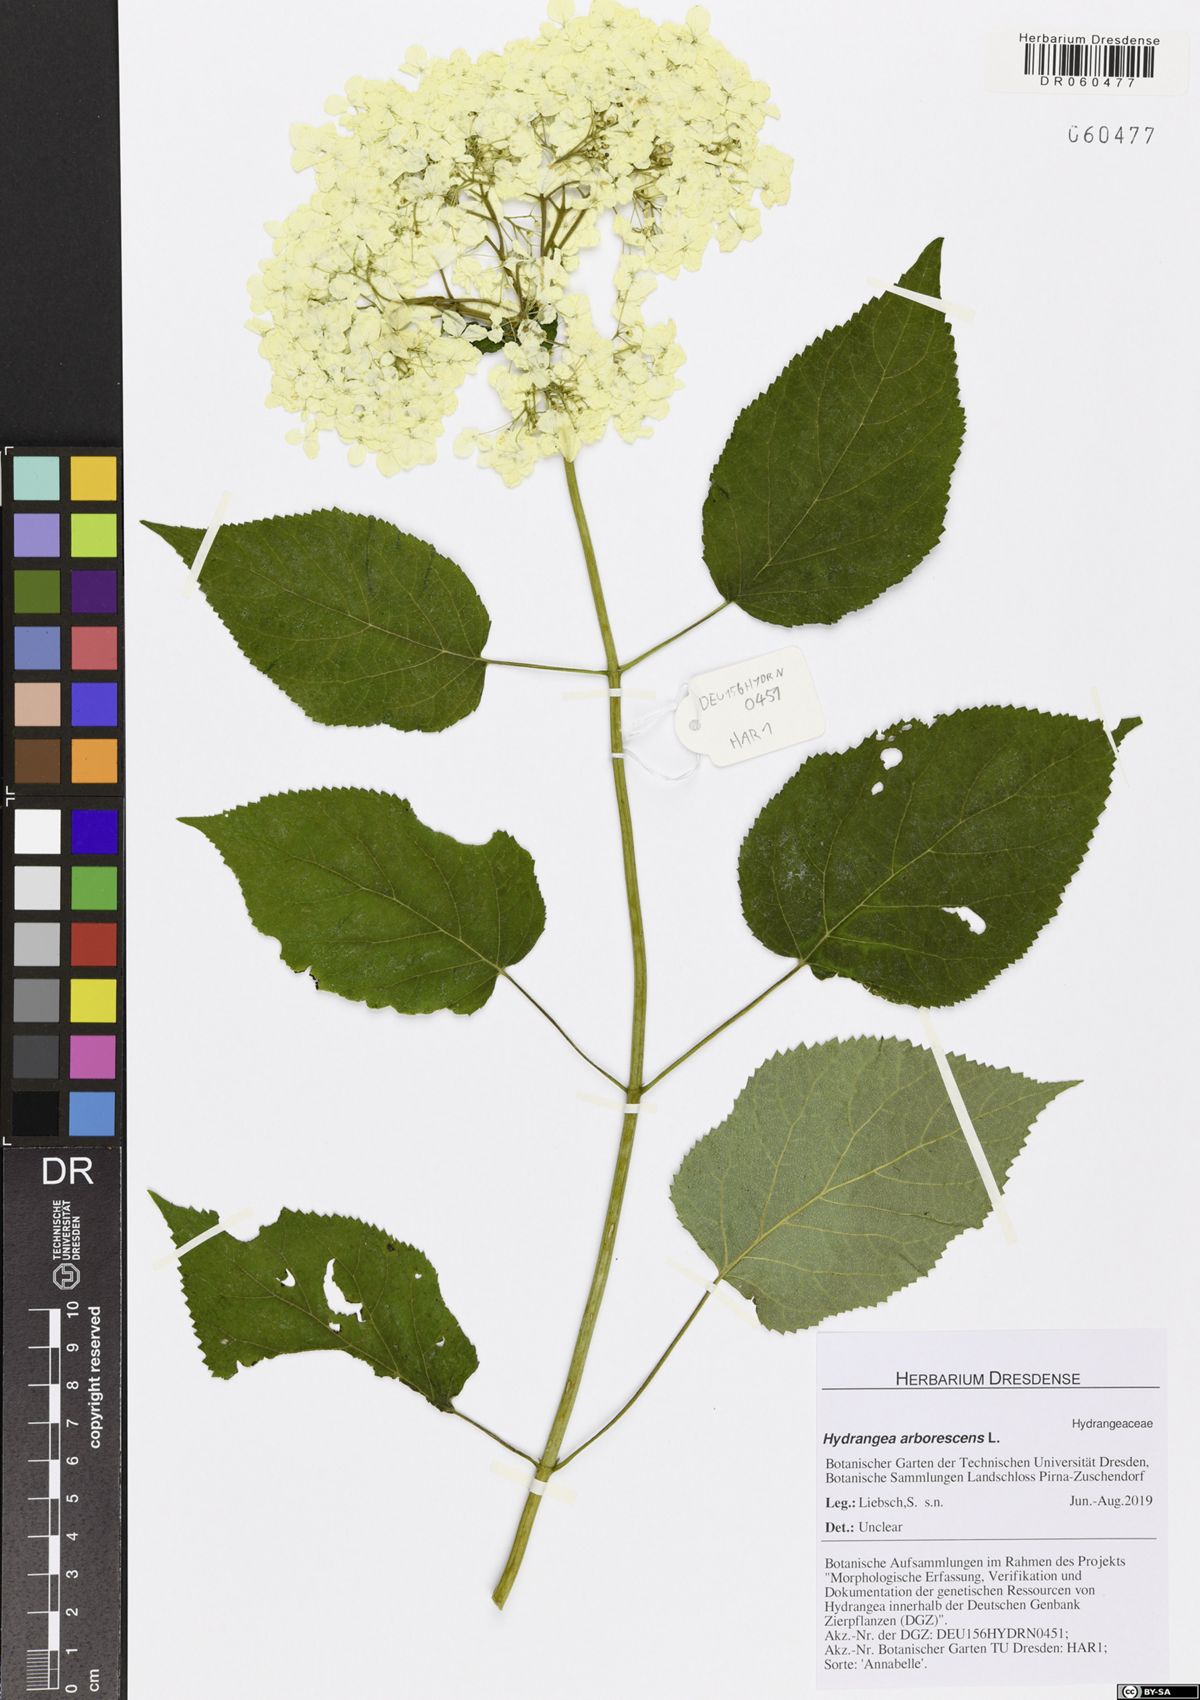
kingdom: Plantae
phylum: Tracheophyta
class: Magnoliopsida
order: Cornales
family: Hydrangeaceae
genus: Hydrangea
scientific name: Hydrangea arborescens
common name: Sevenbark
